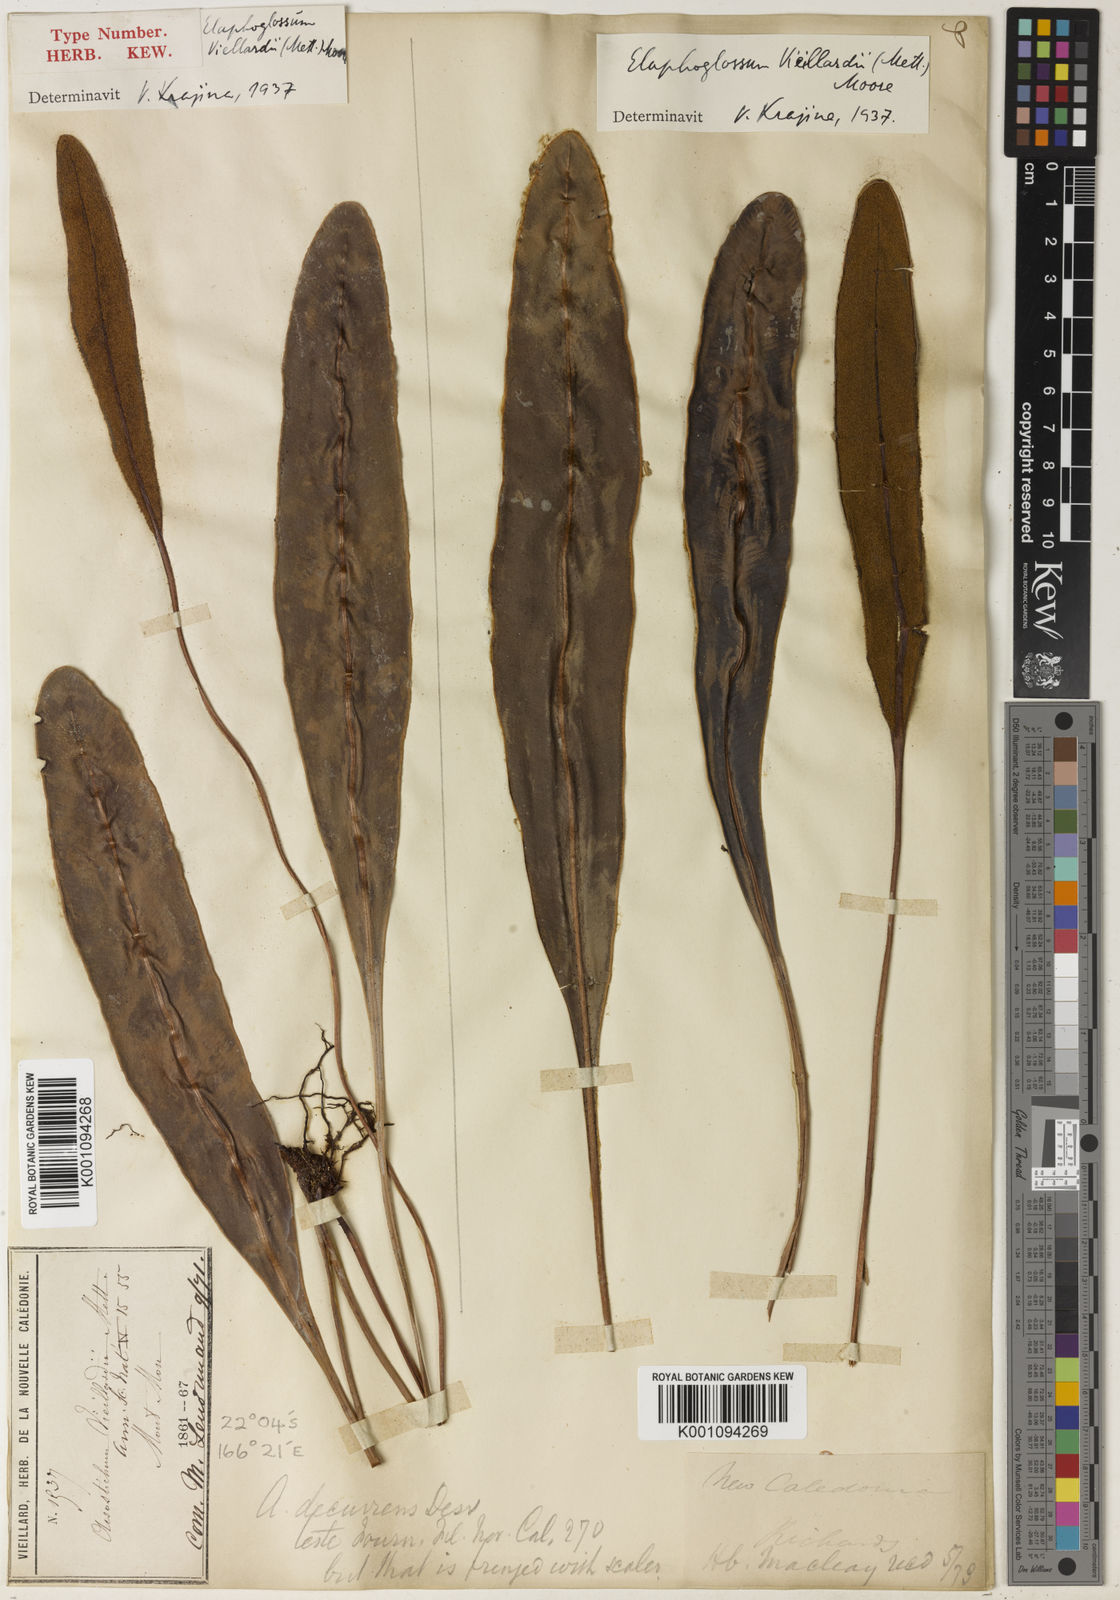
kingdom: Plantae
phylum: Tracheophyta
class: Polypodiopsida
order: Polypodiales
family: Dryopteridaceae
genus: Elaphoglossum
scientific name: Elaphoglossum vieillardii
